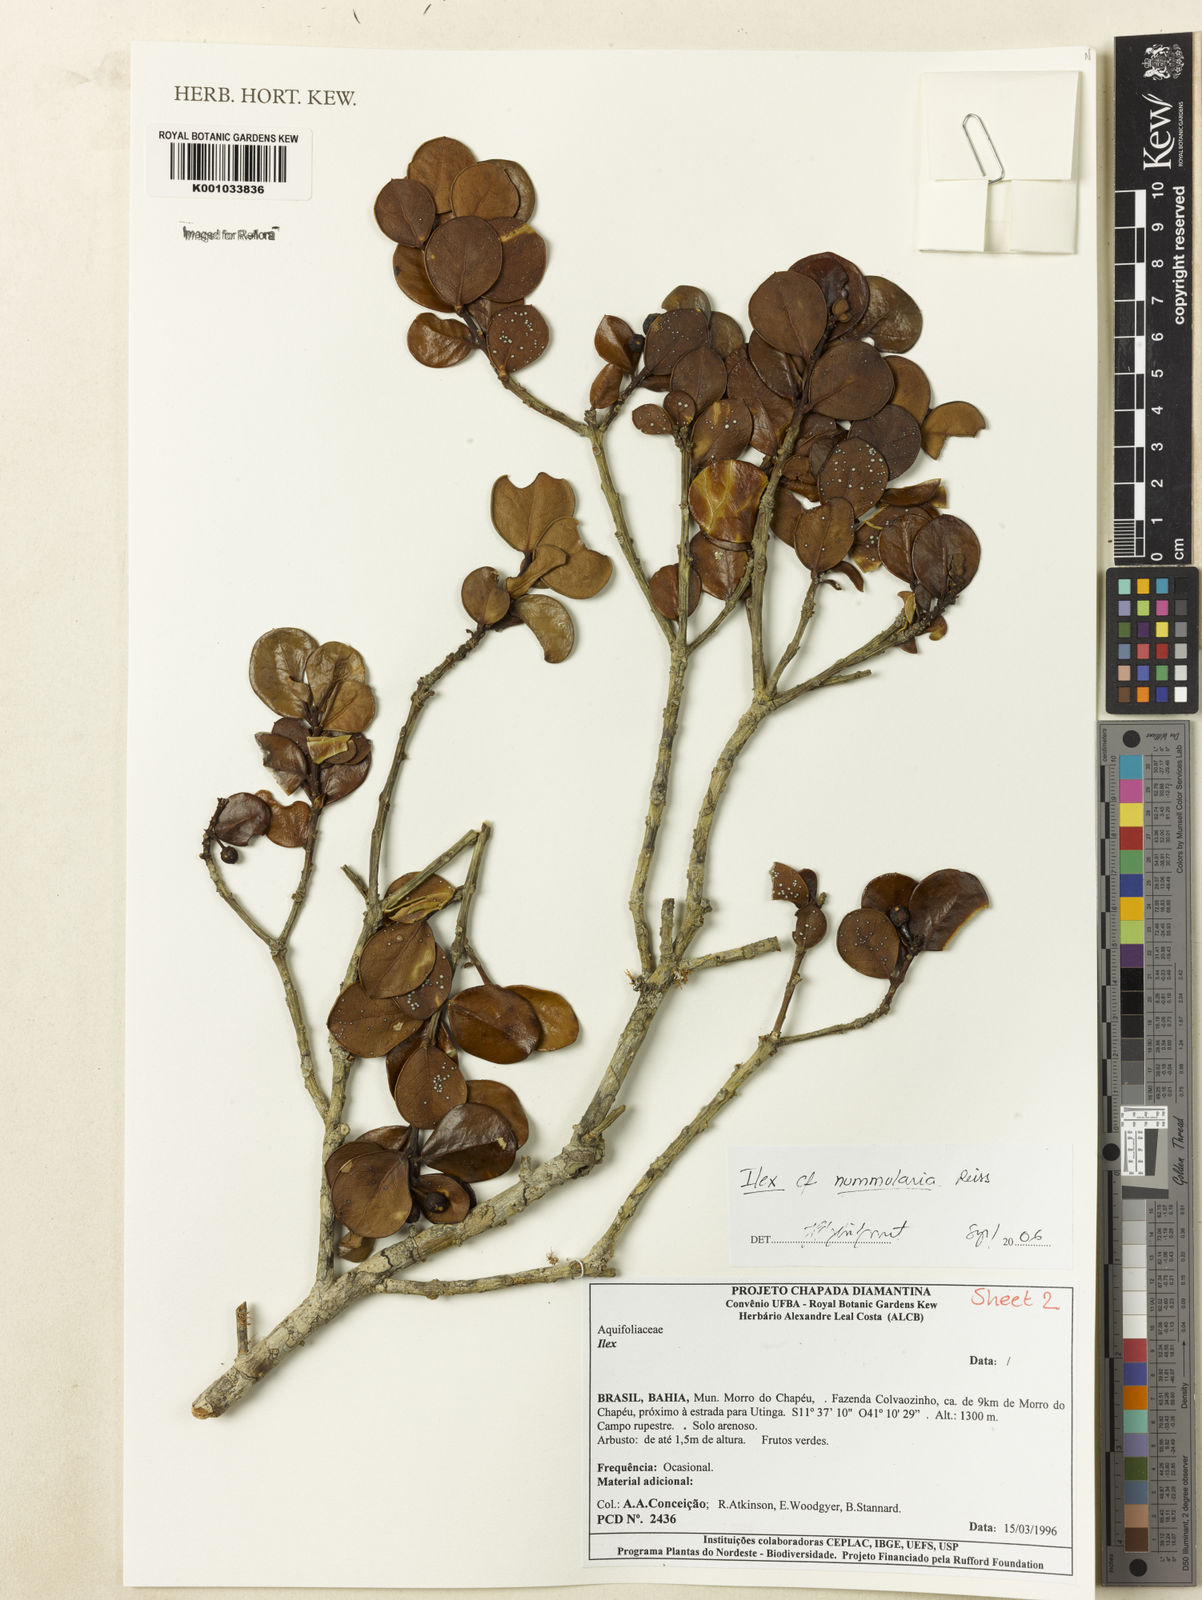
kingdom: Plantae
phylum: Tracheophyta
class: Magnoliopsida
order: Aquifoliales
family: Aquifoliaceae
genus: Ilex
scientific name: Ilex nummularia
